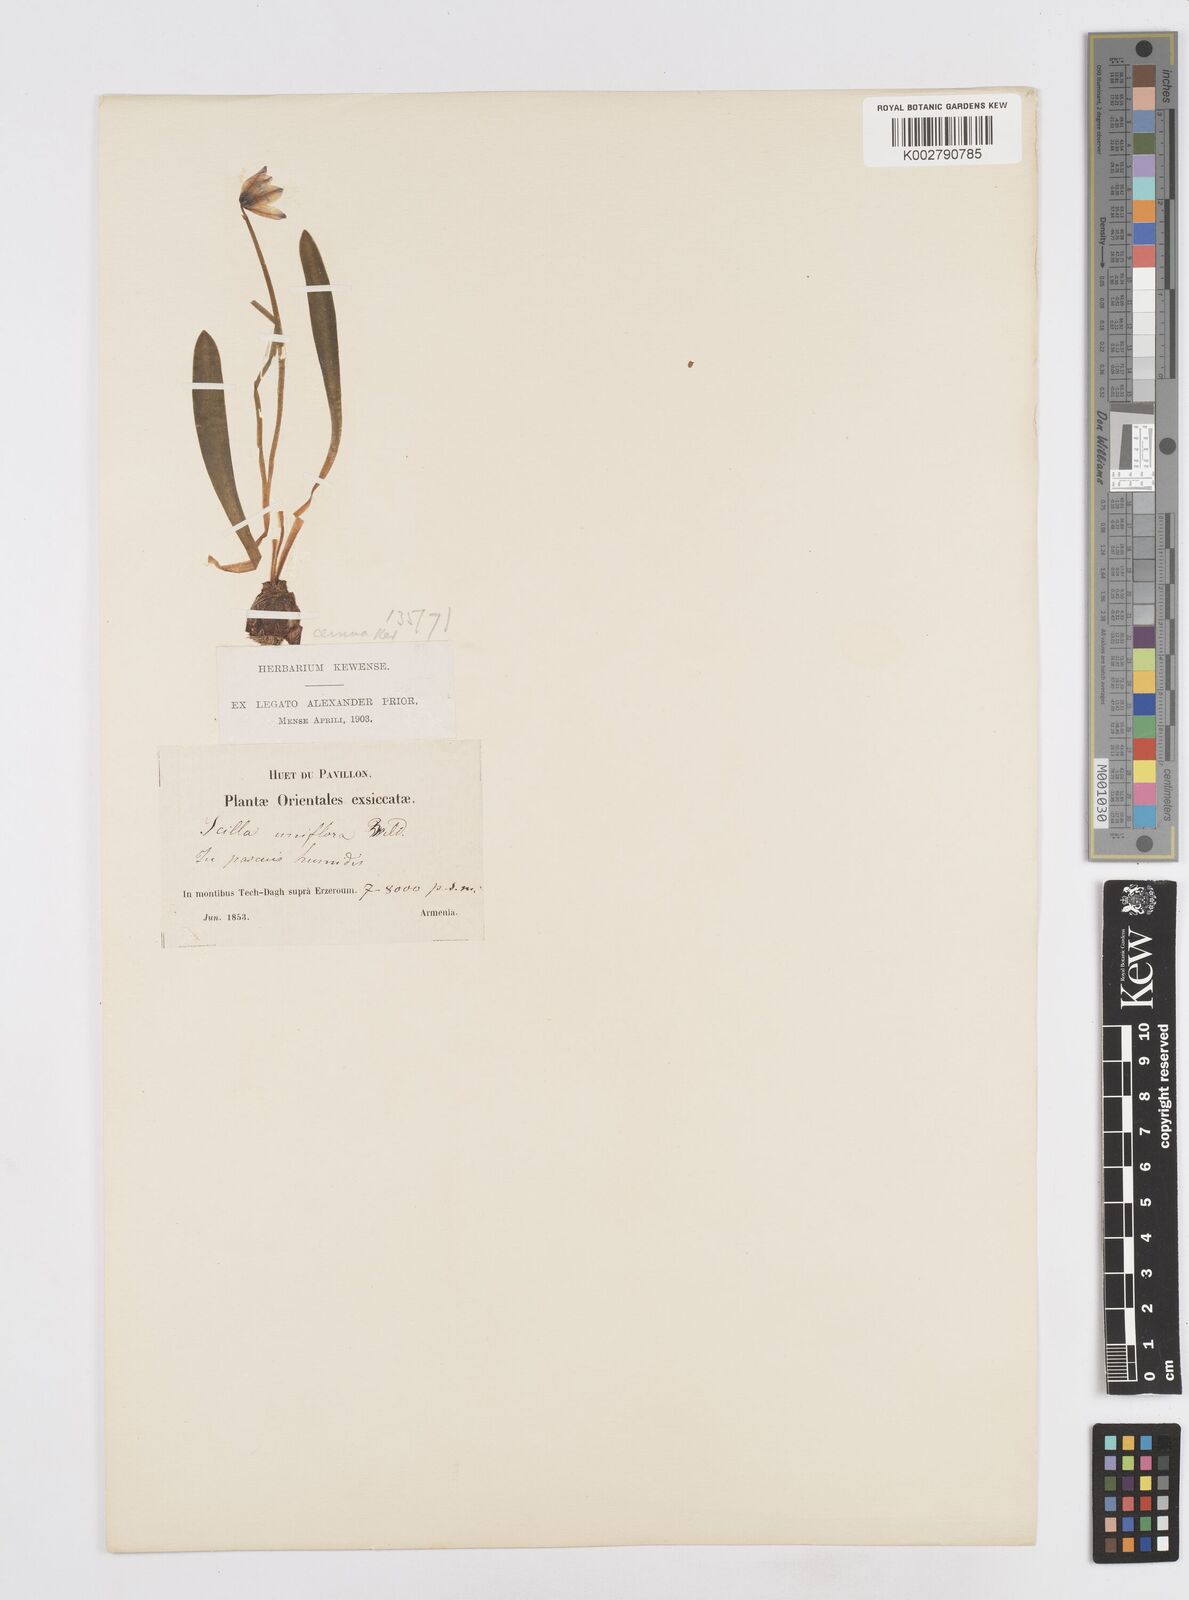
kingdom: Plantae
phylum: Tracheophyta
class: Liliopsida
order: Asparagales
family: Asparagaceae
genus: Scilla
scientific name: Scilla siberica
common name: Siberian squill
